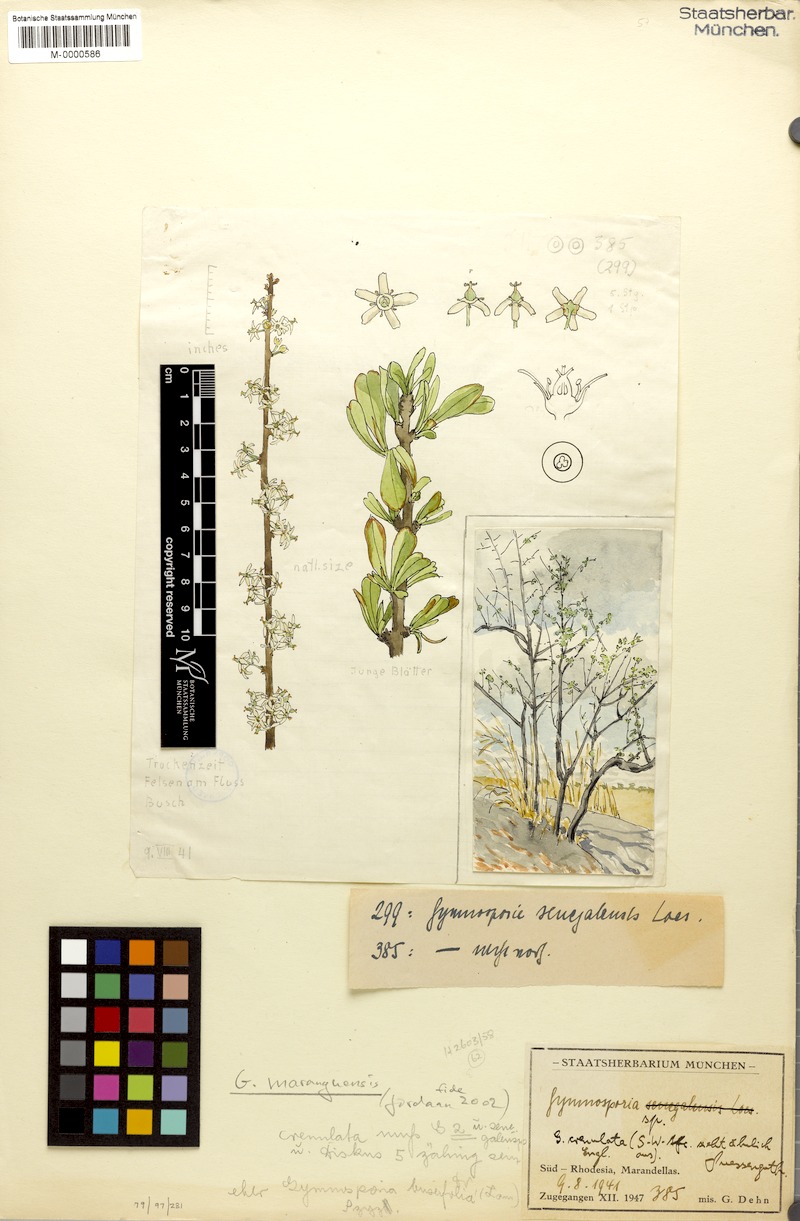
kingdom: Plantae
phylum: Tracheophyta
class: Magnoliopsida
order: Celastrales
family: Celastraceae
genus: Gymnosporia
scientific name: Gymnosporia heterophylla
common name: Angle-stem spikethorn
